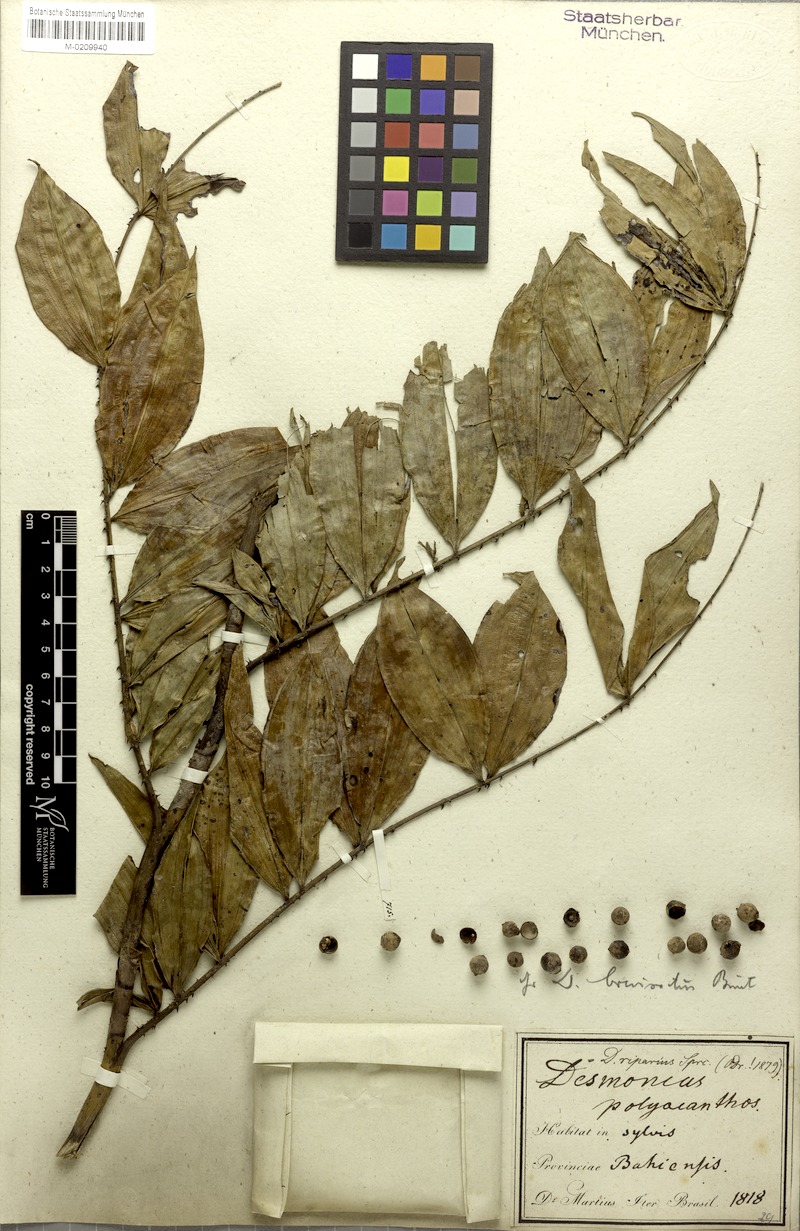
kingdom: Plantae
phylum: Tracheophyta
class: Liliopsida
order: Arecales
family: Arecaceae
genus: Desmoncus
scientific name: Desmoncus polyacanthos
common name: Suriname bramble palm
